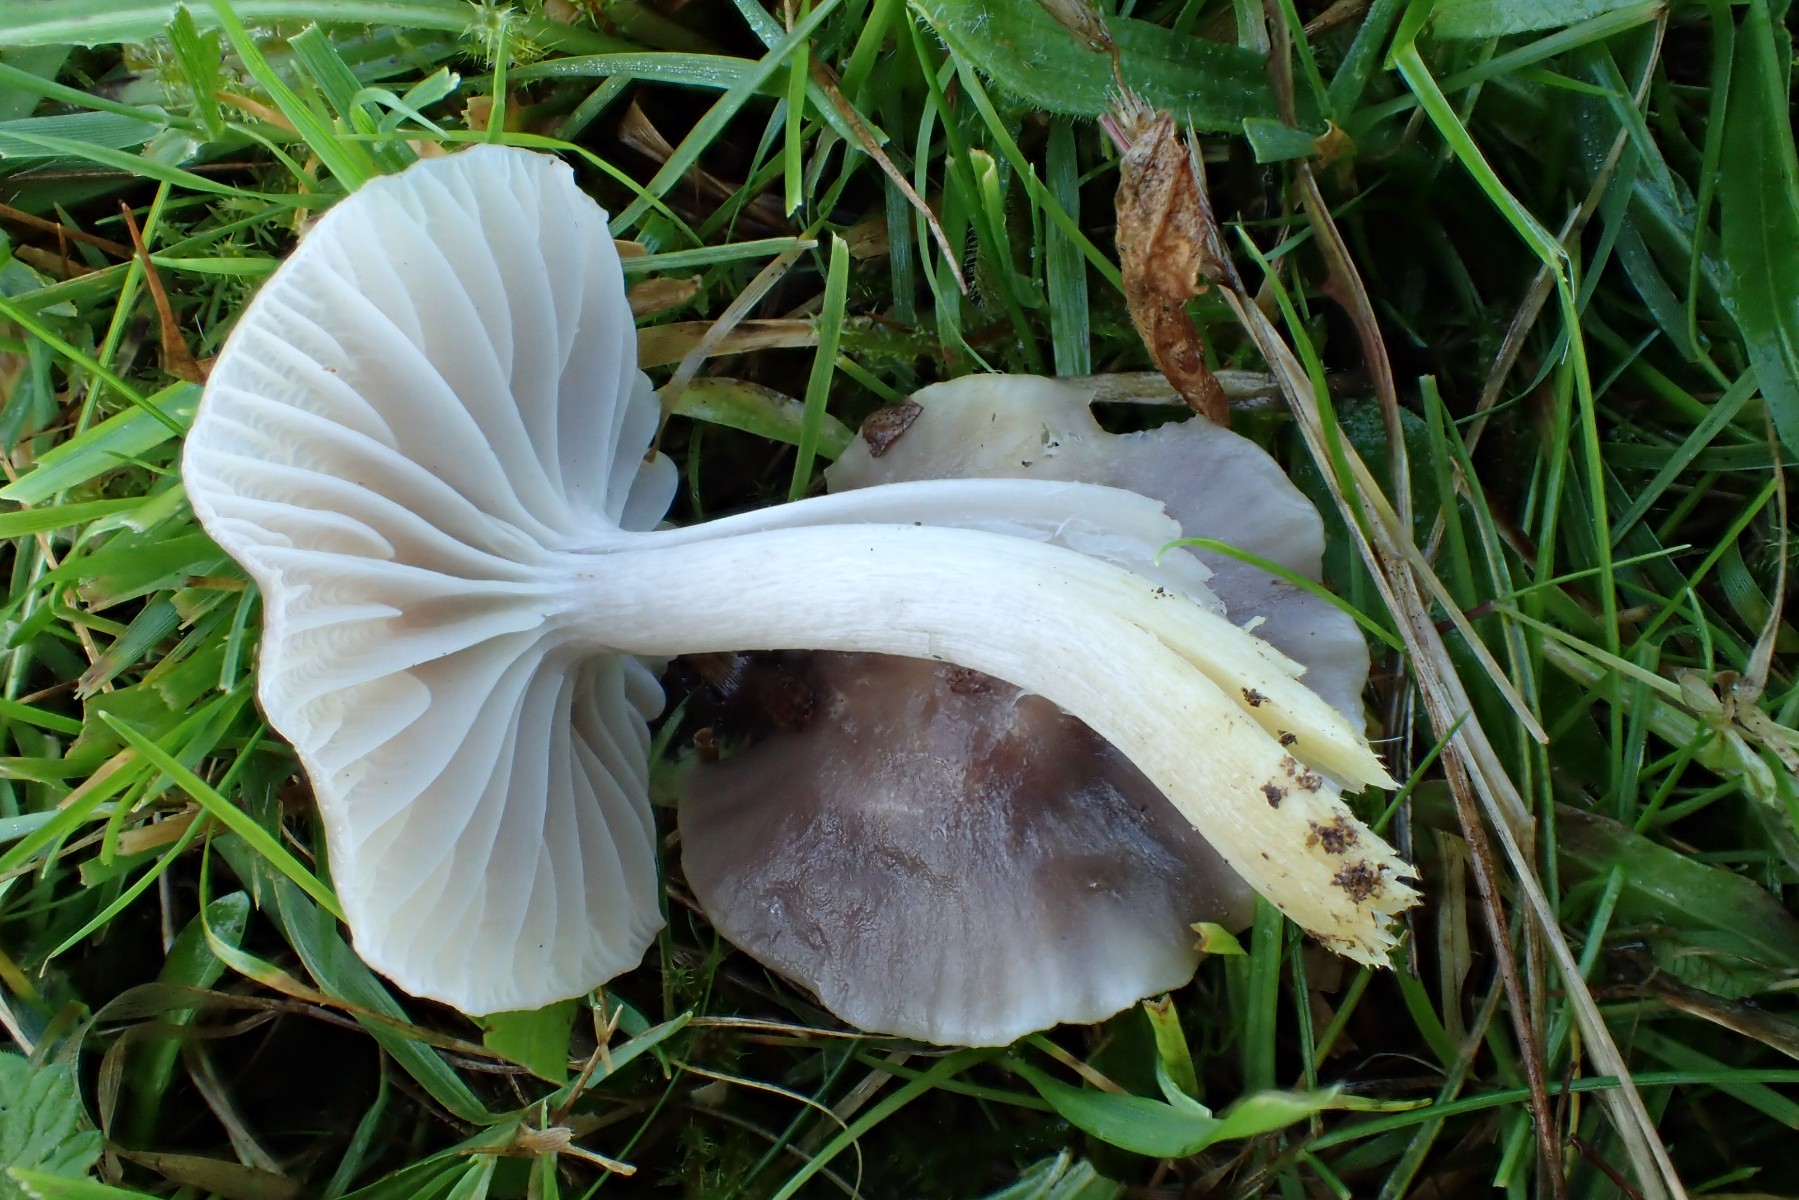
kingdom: Fungi
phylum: Basidiomycota
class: Agaricomycetes
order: Agaricales
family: Hygrophoraceae
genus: Cuphophyllus
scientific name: Cuphophyllus flavipes
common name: gulfodet vokshat
